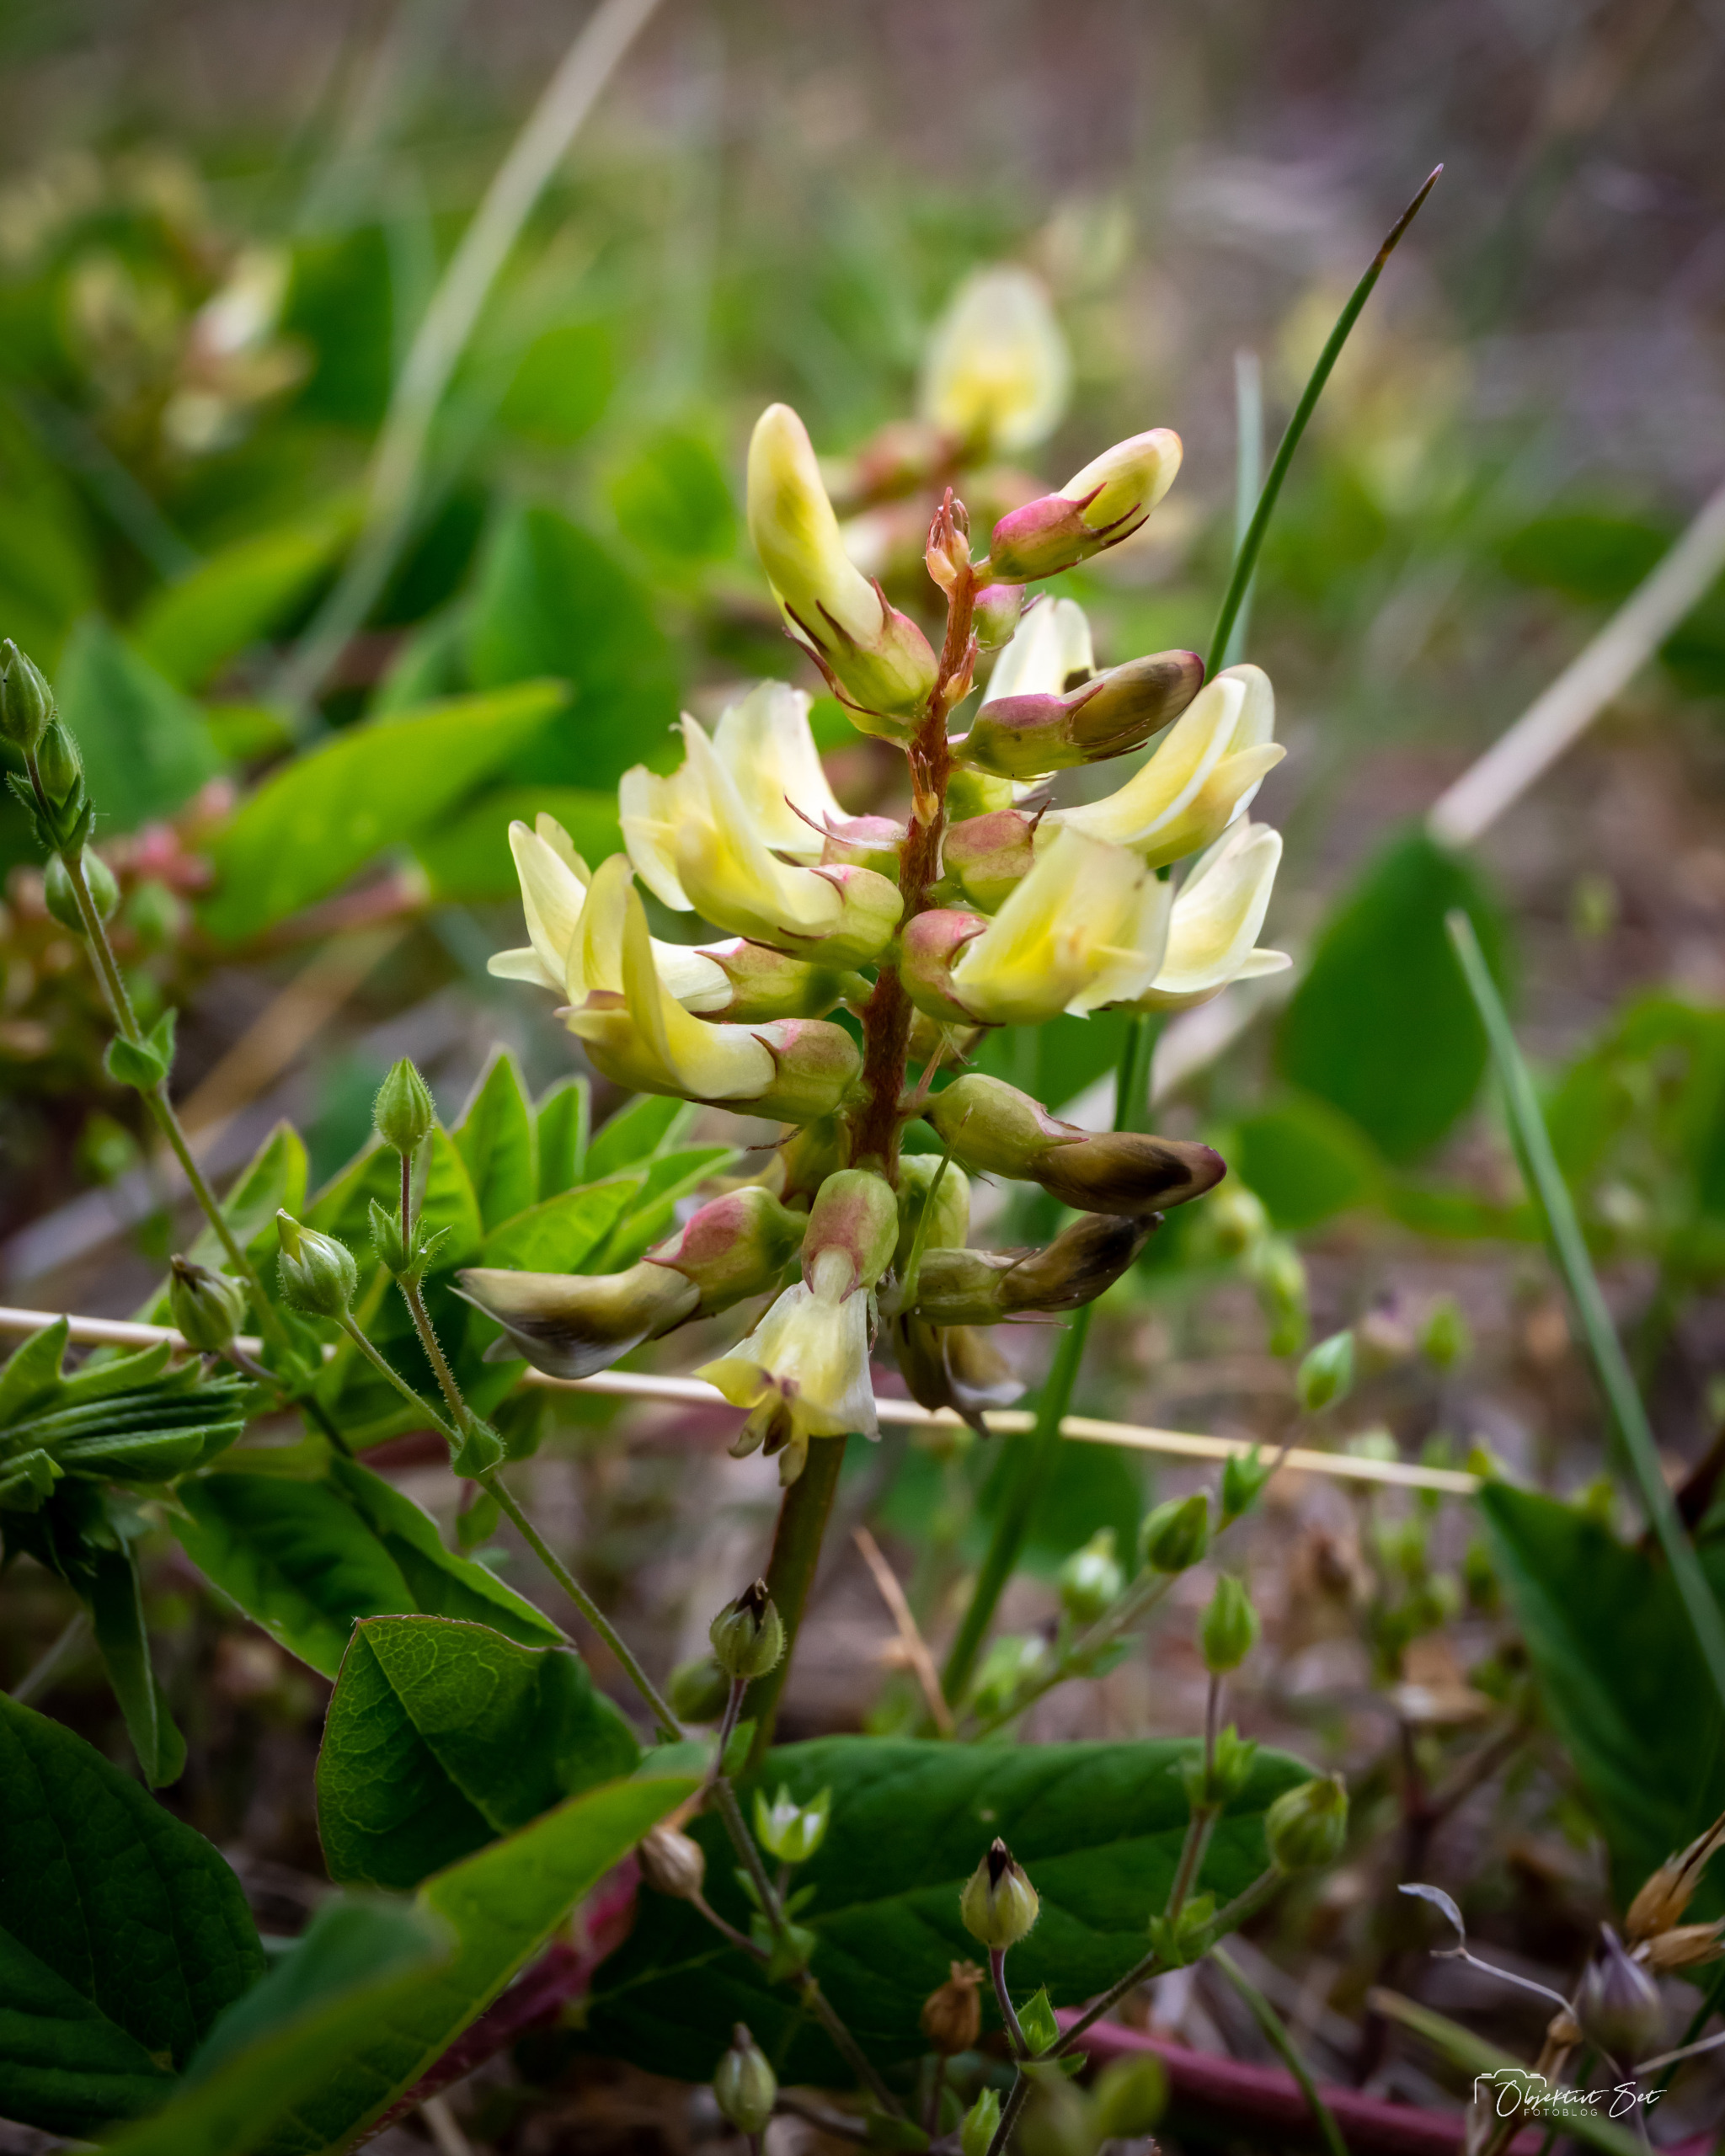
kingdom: Plantae
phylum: Tracheophyta
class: Magnoliopsida
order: Fabales
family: Fabaceae
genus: Astragalus
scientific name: Astragalus glycyphyllos
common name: Sød astragel
